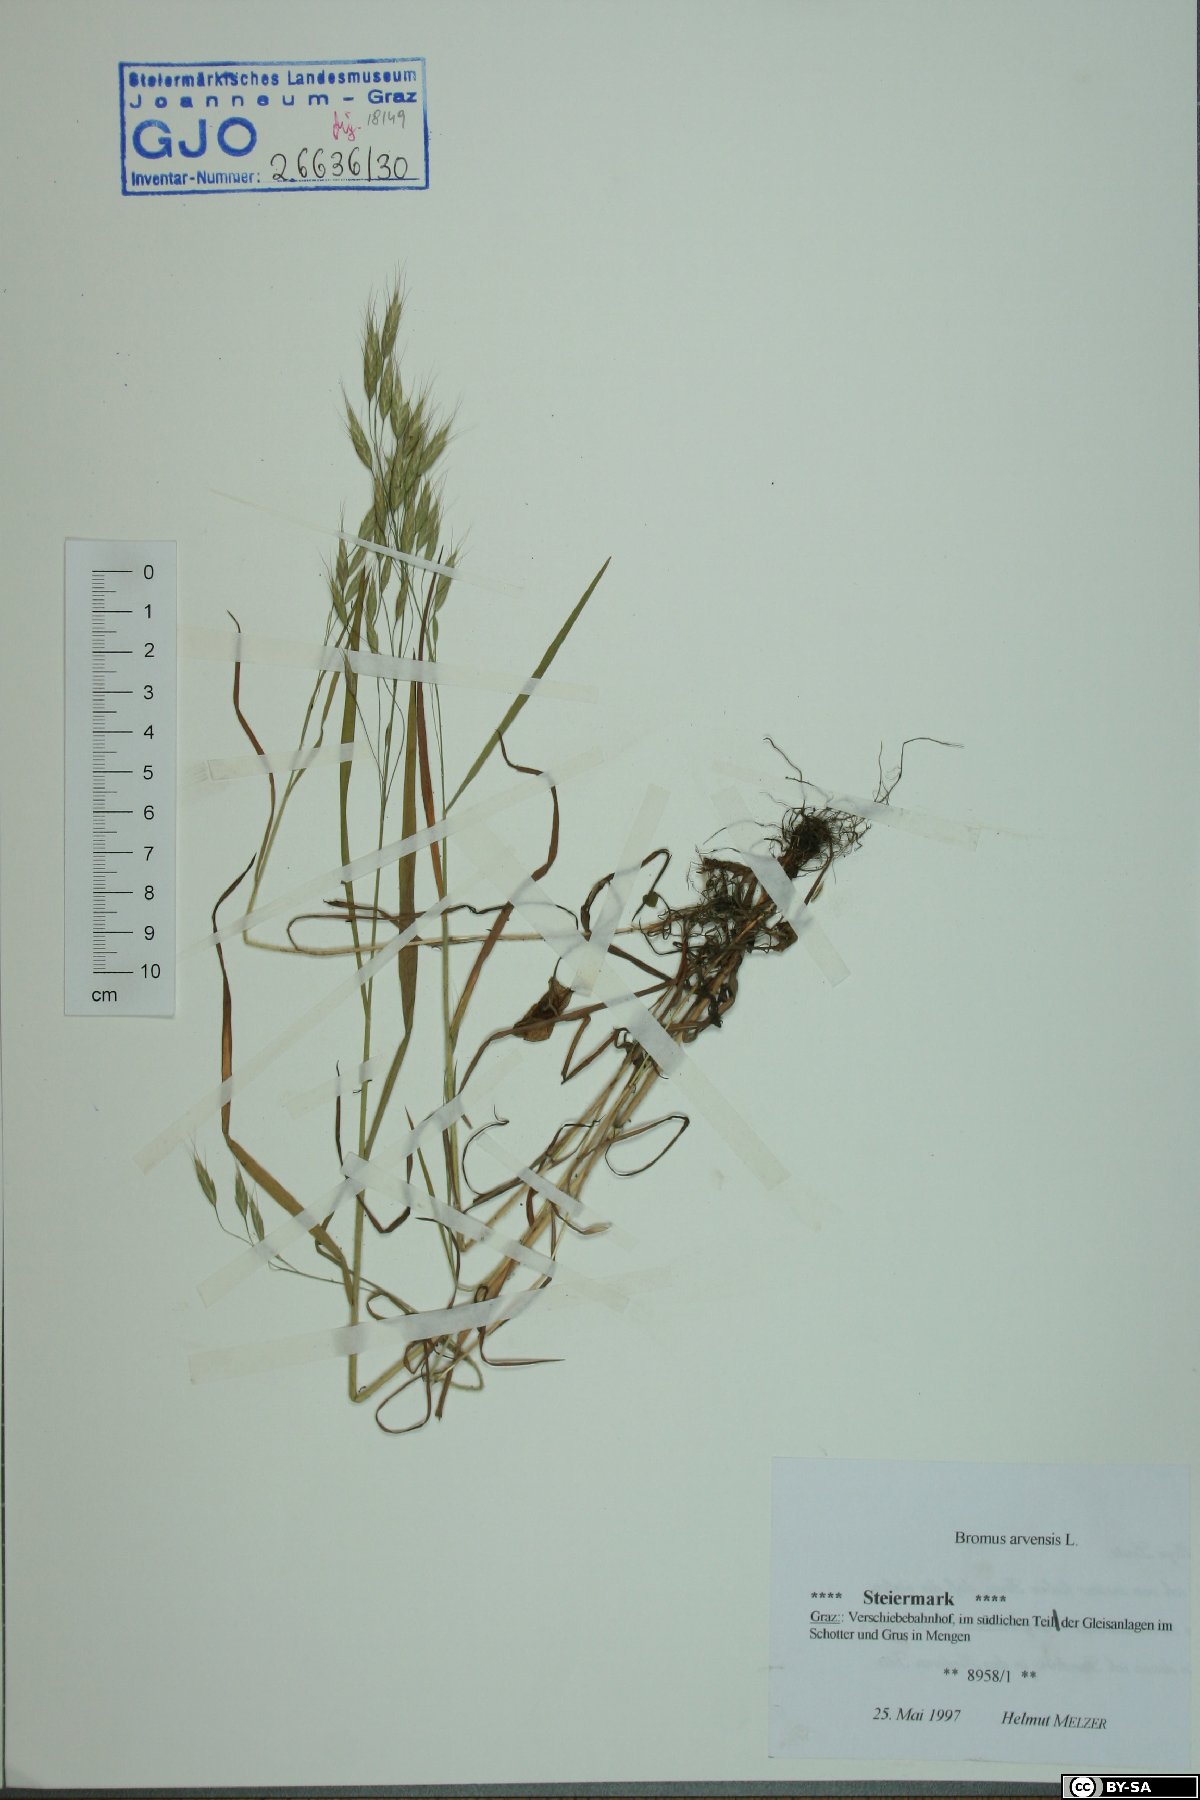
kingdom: Plantae
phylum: Tracheophyta
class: Liliopsida
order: Poales
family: Poaceae
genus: Bromus
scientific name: Bromus arvensis
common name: Field brome
